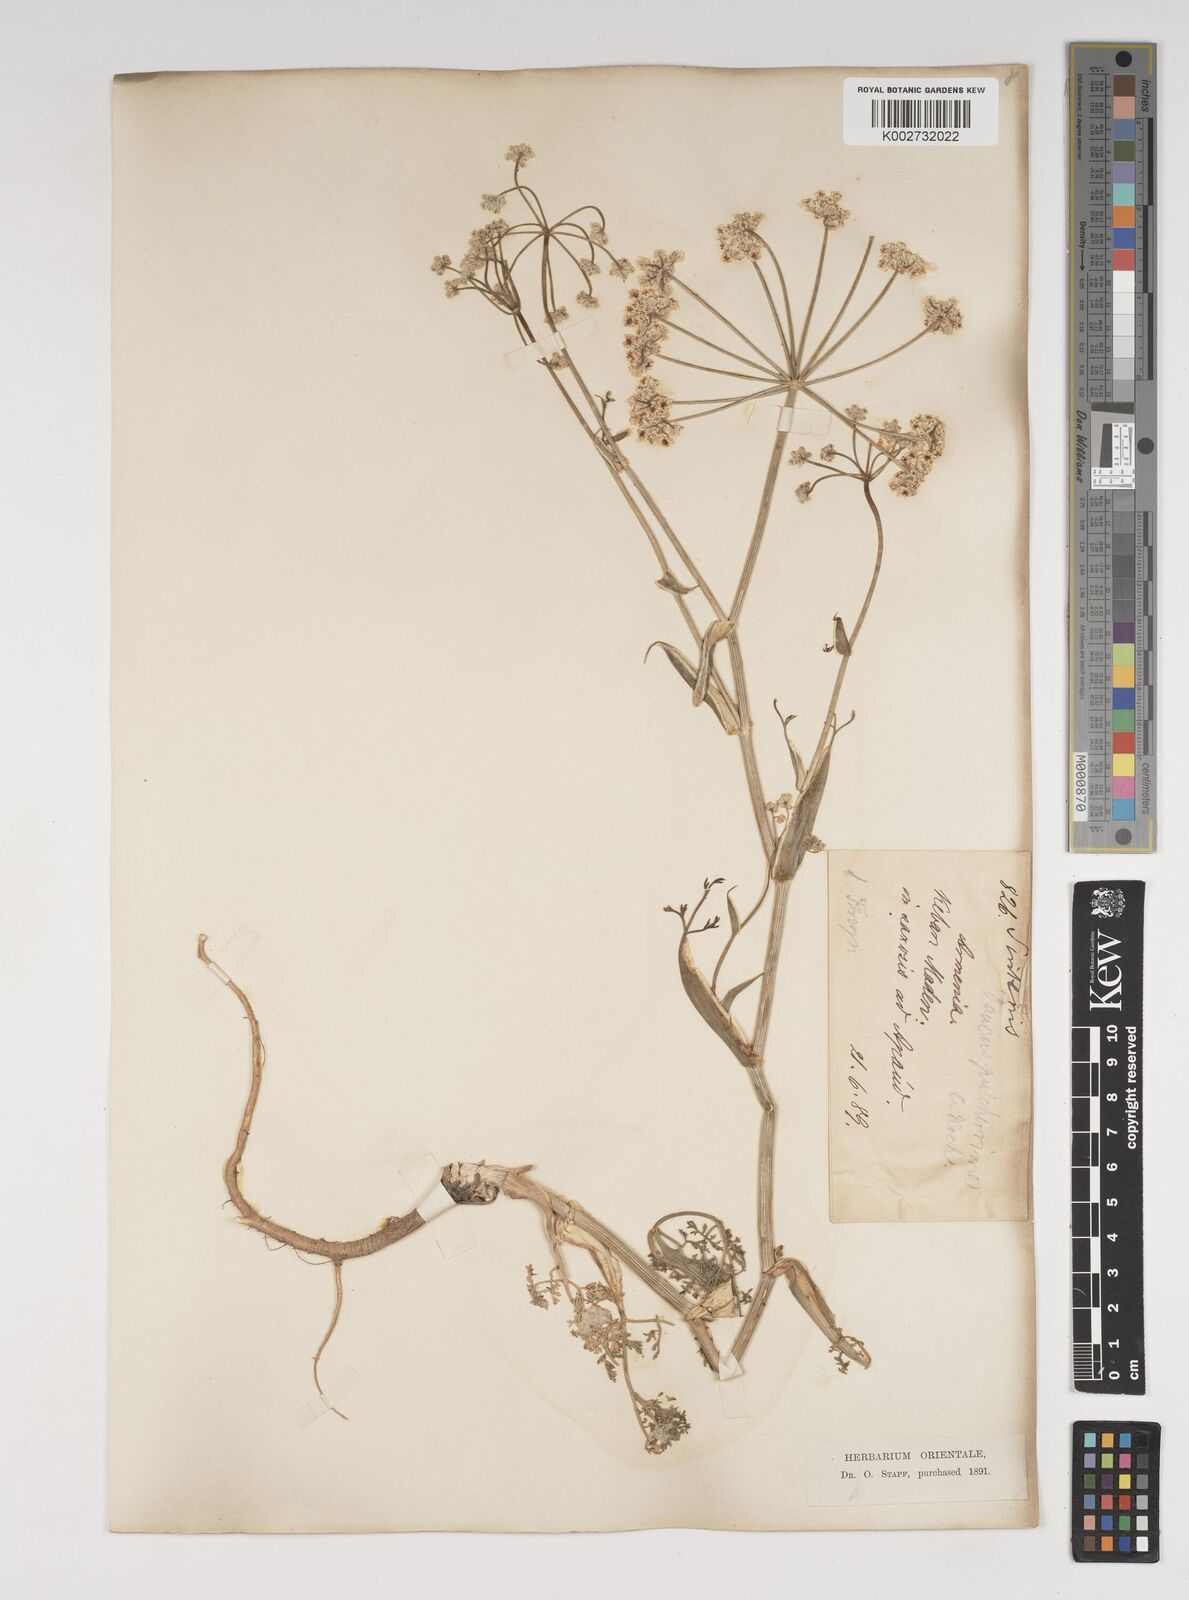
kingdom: Plantae
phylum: Tracheophyta
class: Magnoliopsida
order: Apiales
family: Apiaceae
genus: Astrodaucus
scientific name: Astrodaucus
